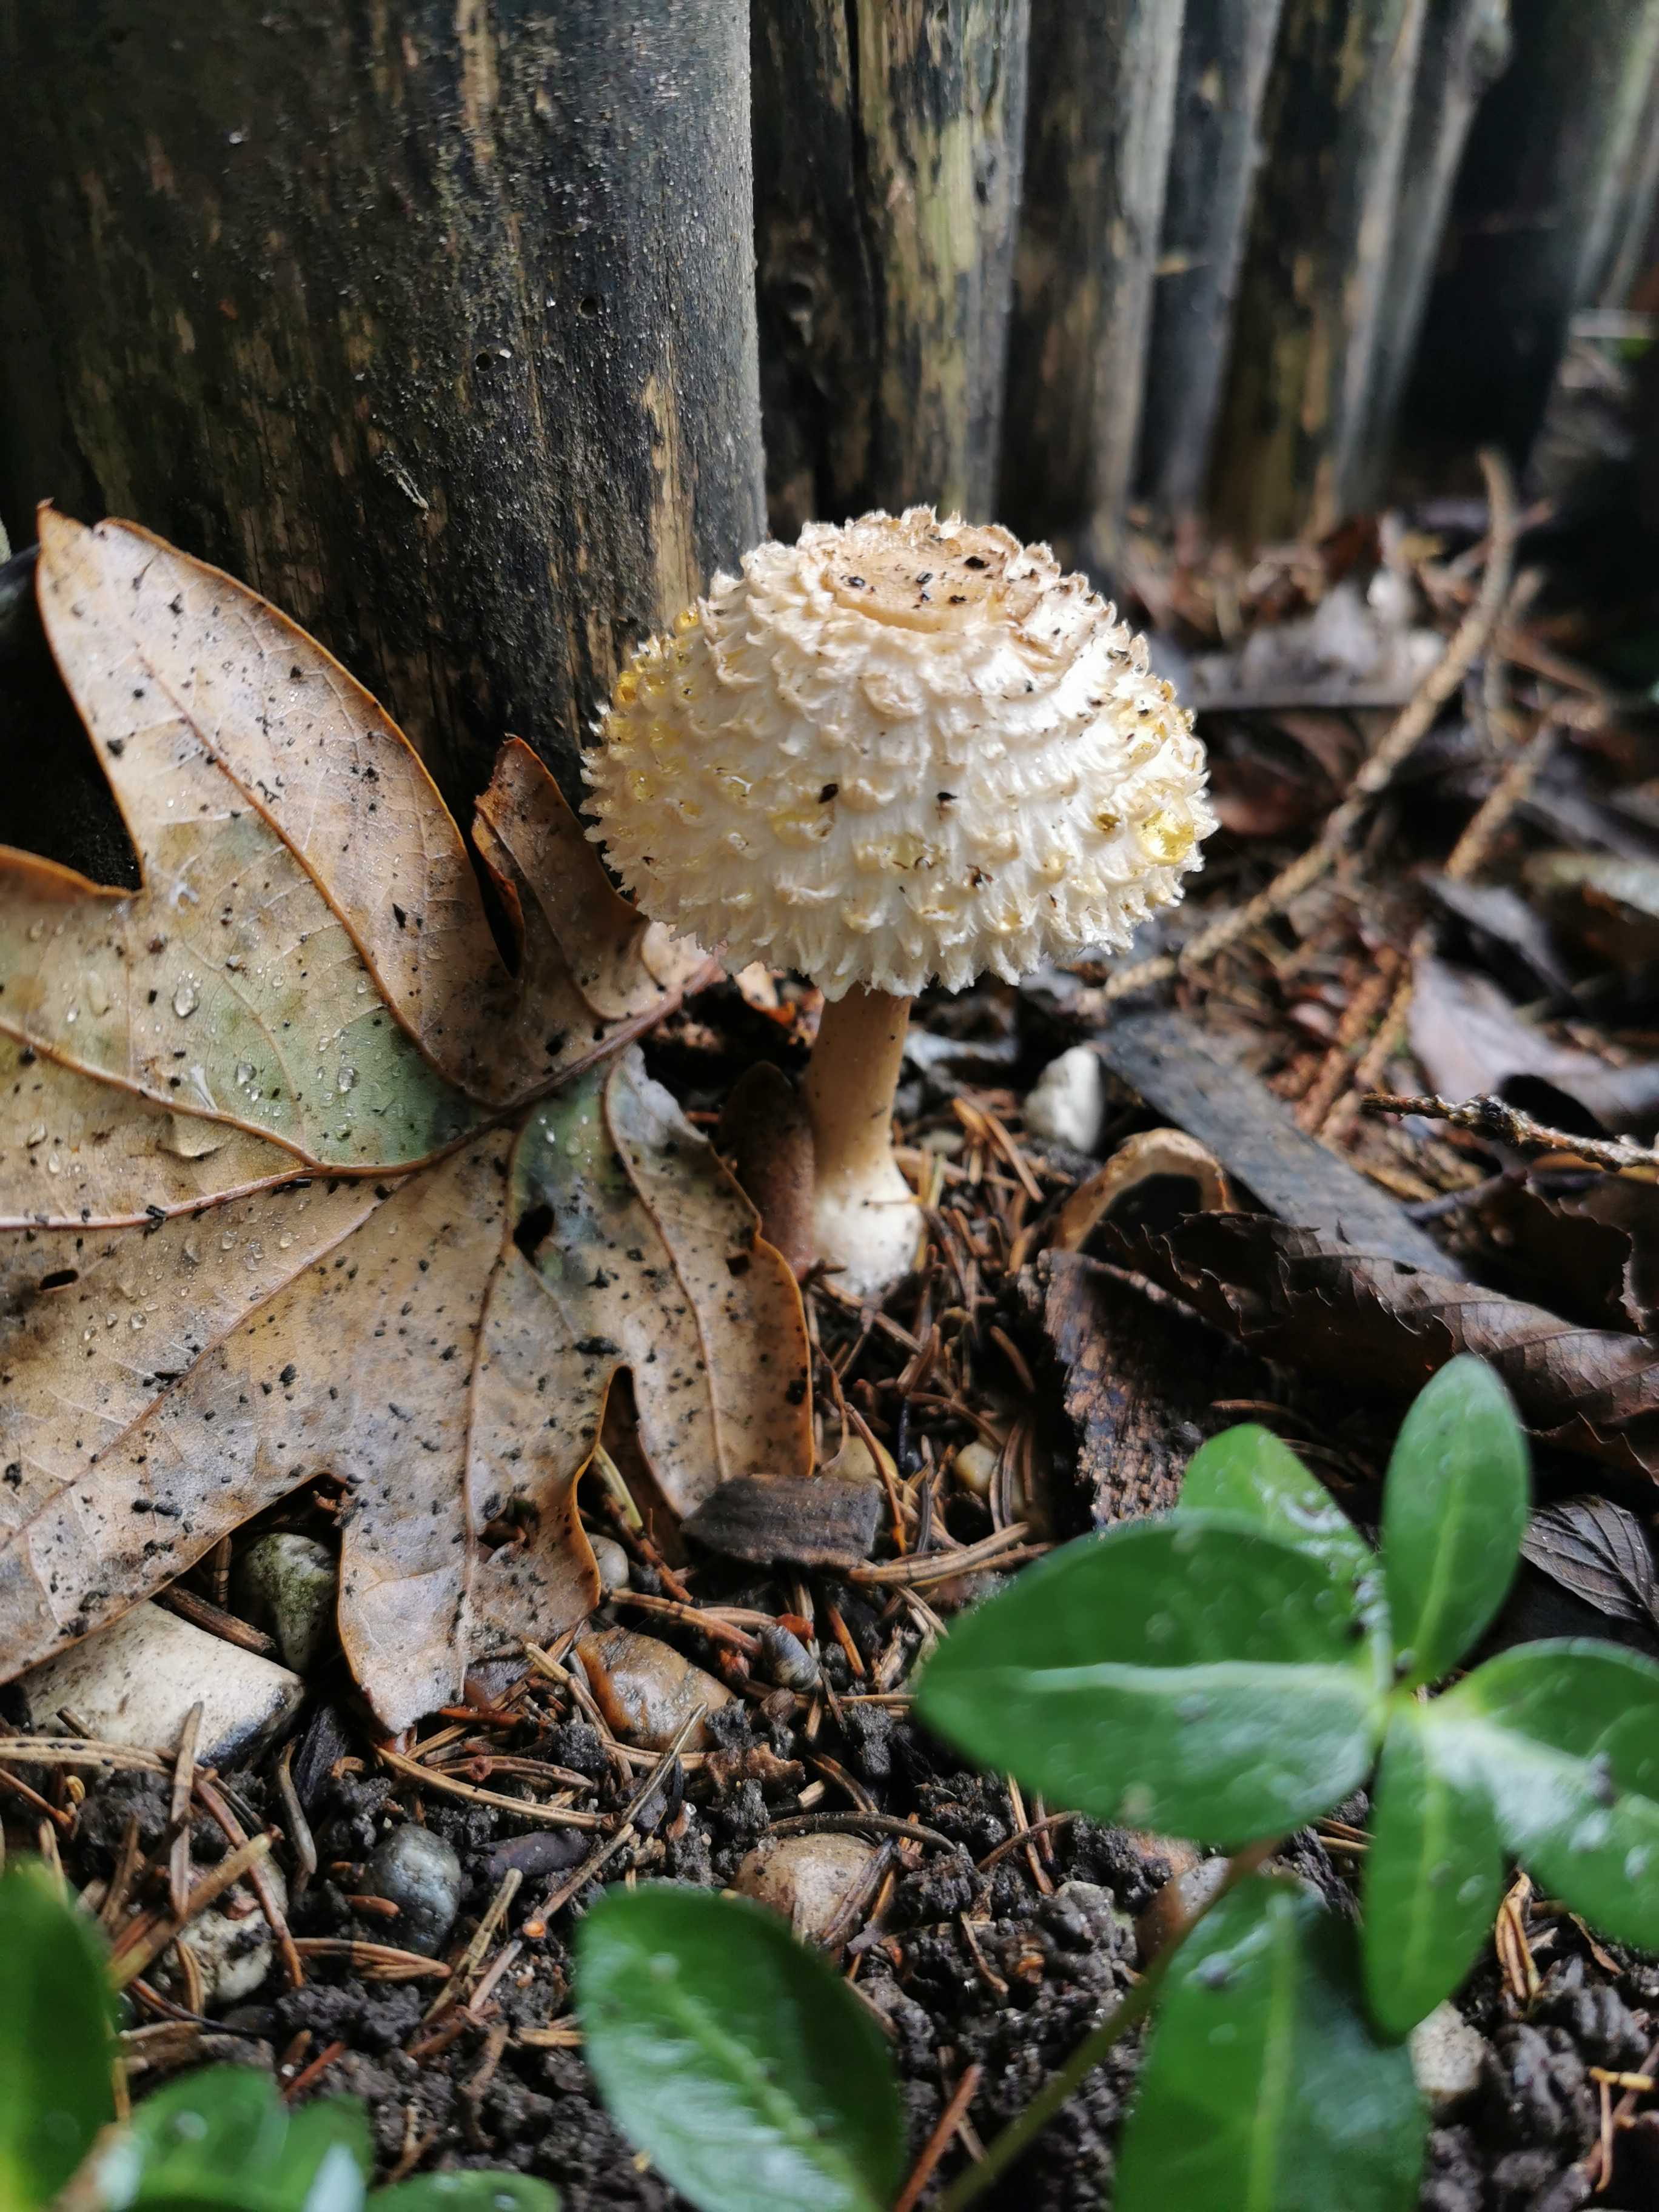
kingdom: Fungi
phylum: Basidiomycota
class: Agaricomycetes
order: Agaricales
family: Agaricaceae
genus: Leucoagaricus
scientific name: Leucoagaricus nympharum
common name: gran-silkehat
